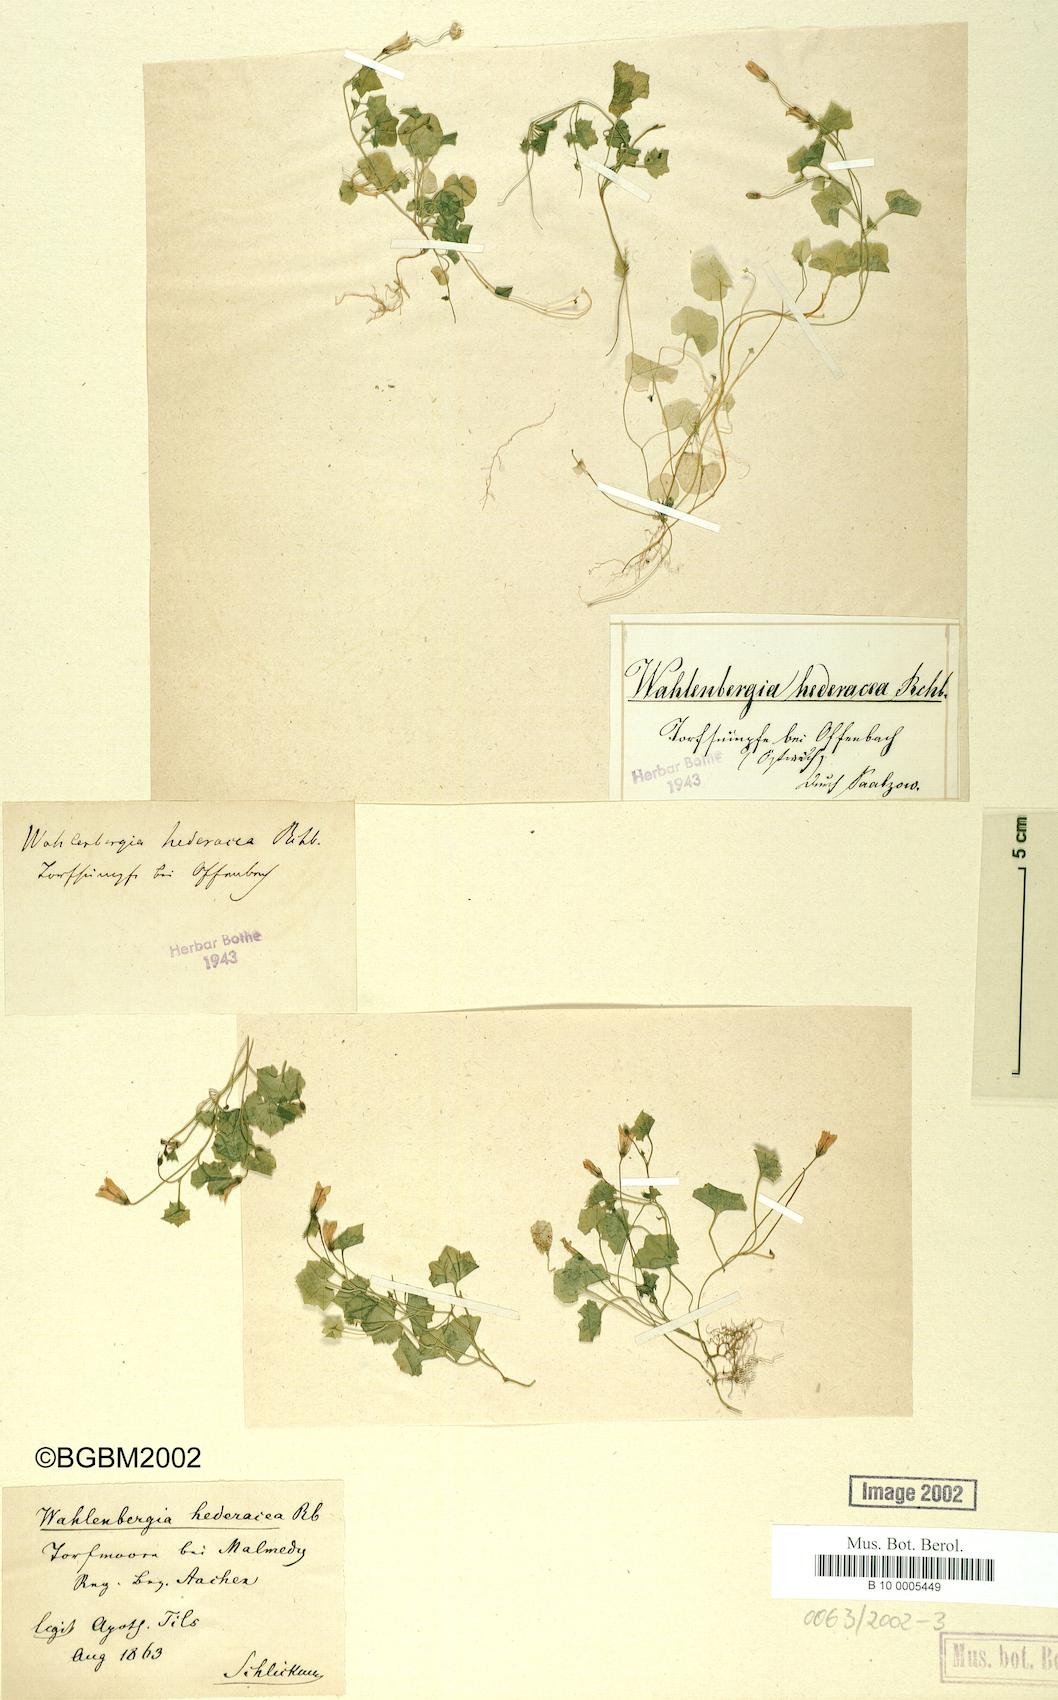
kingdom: Plantae
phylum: Tracheophyta
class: Magnoliopsida
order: Asterales
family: Campanulaceae
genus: Hesperocodon
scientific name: Hesperocodon hederaceus
